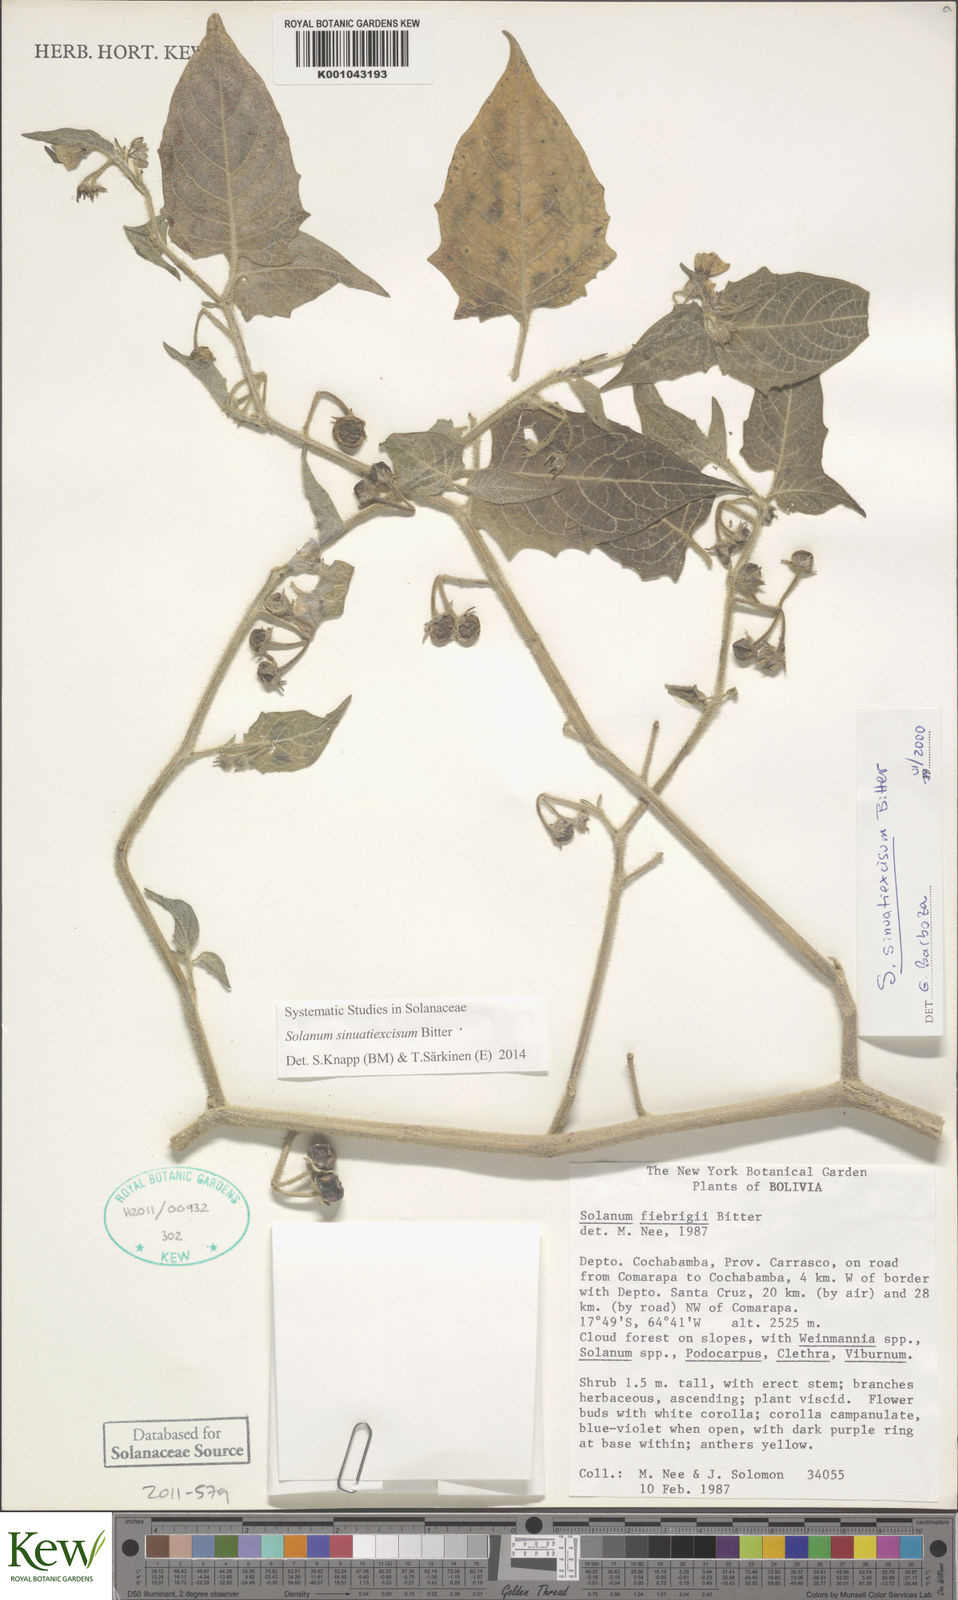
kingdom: Plantae
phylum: Tracheophyta
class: Magnoliopsida
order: Solanales
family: Solanaceae
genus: Solanum
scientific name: Solanum sinuatiexcisum
